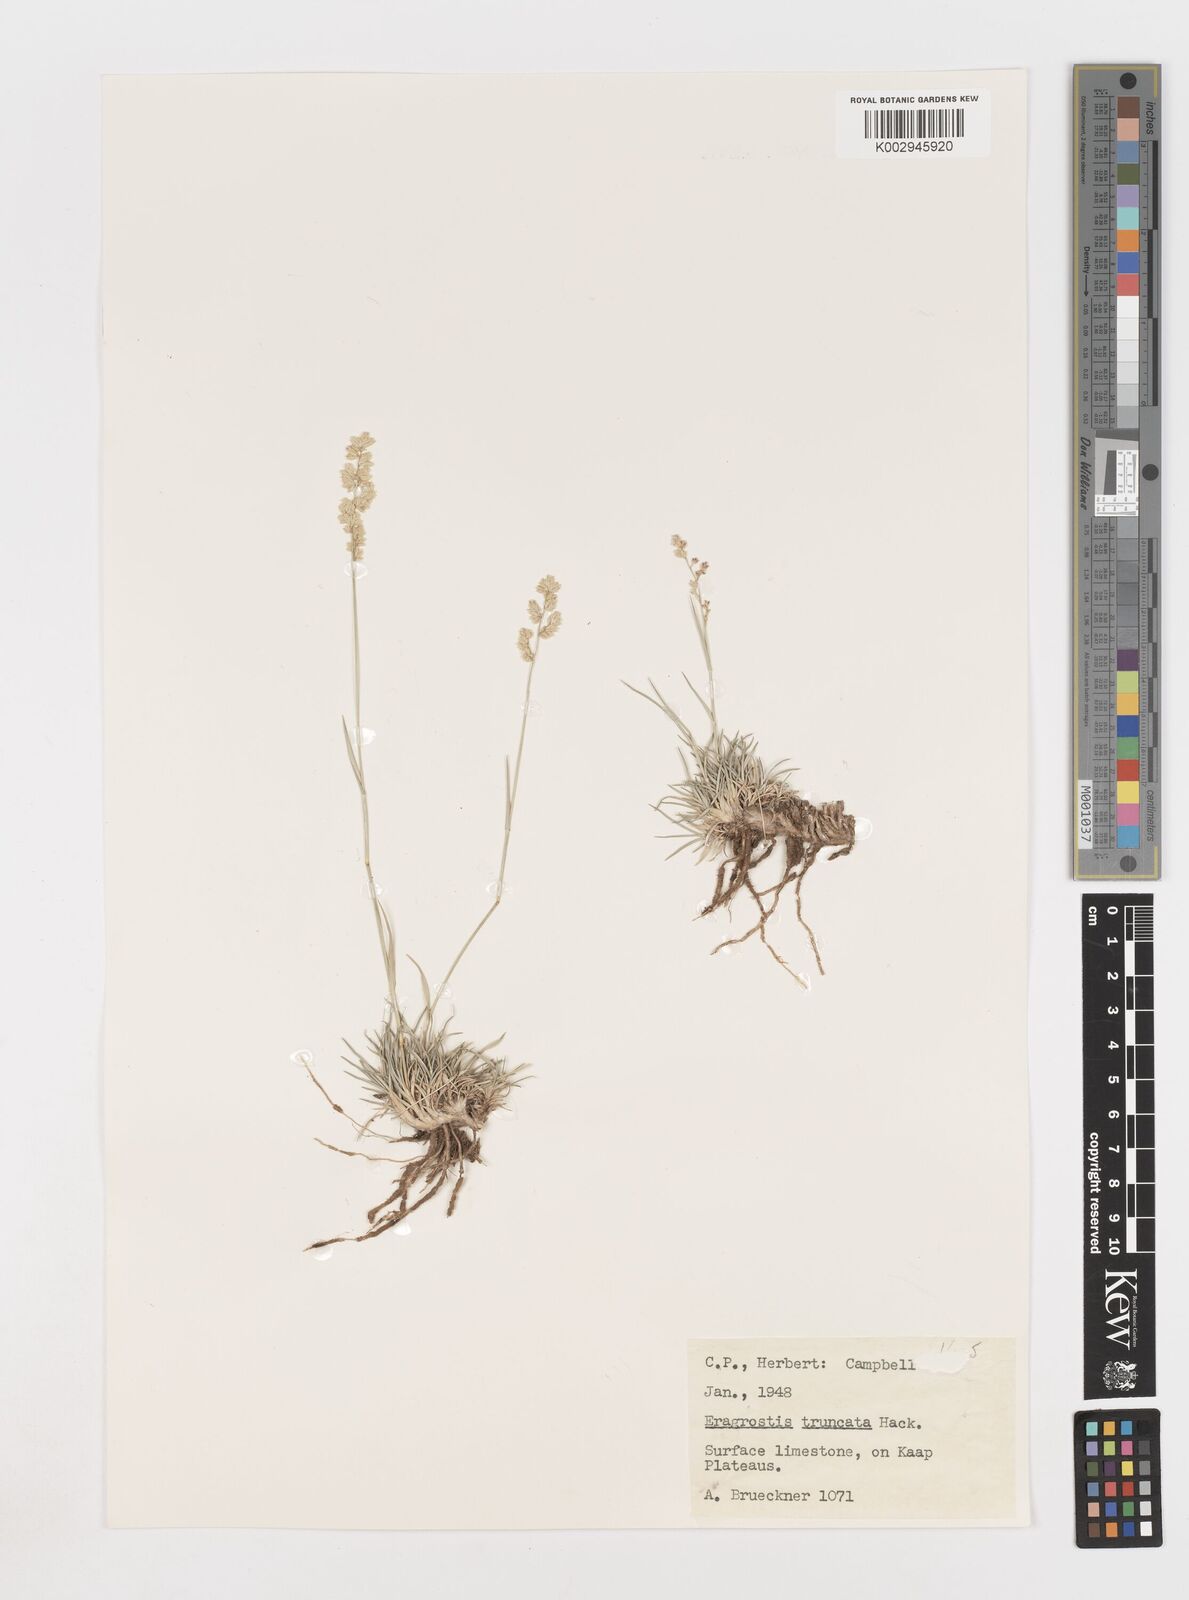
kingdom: Plantae
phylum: Tracheophyta
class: Liliopsida
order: Poales
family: Poaceae
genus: Eragrostis
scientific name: Eragrostis truncata
